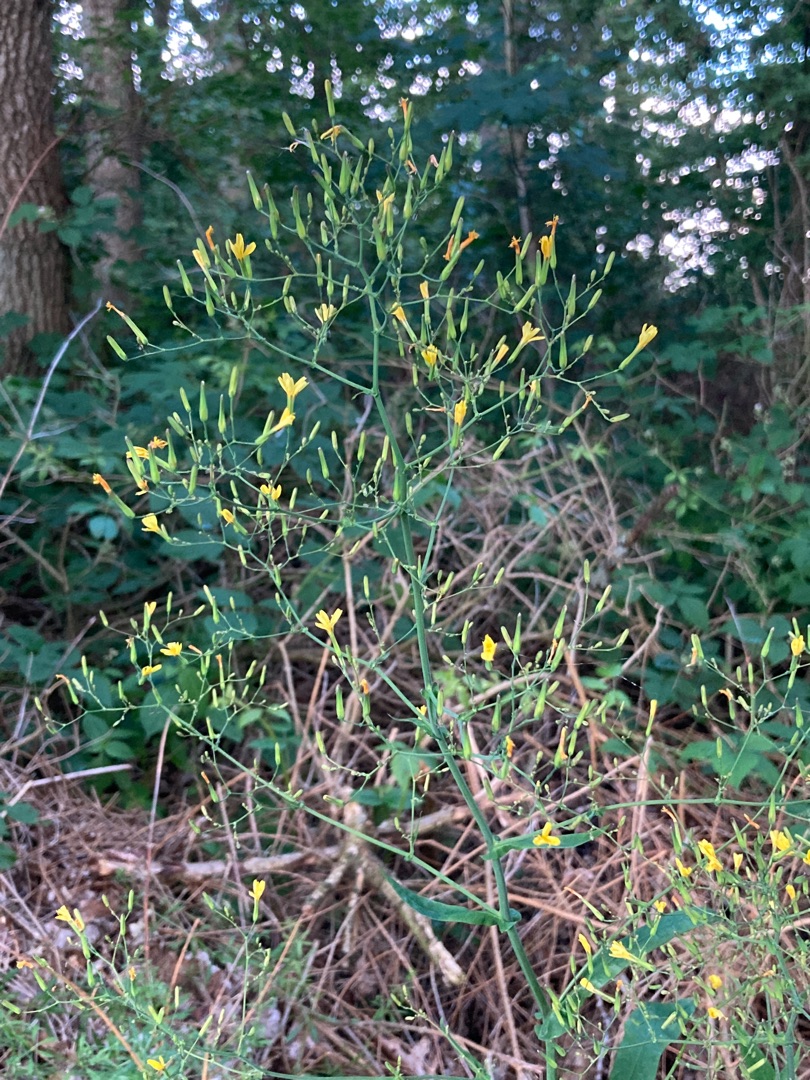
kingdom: Plantae
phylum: Tracheophyta
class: Magnoliopsida
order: Asterales
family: Asteraceae
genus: Mycelis
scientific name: Mycelis muralis
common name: Skov-salat
